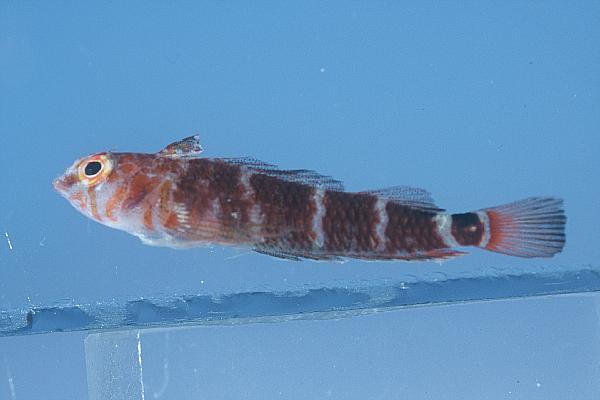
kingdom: Animalia
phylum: Chordata
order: Perciformes
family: Tripterygiidae
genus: Enneapterygius
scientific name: Enneapterygius gruschkai
